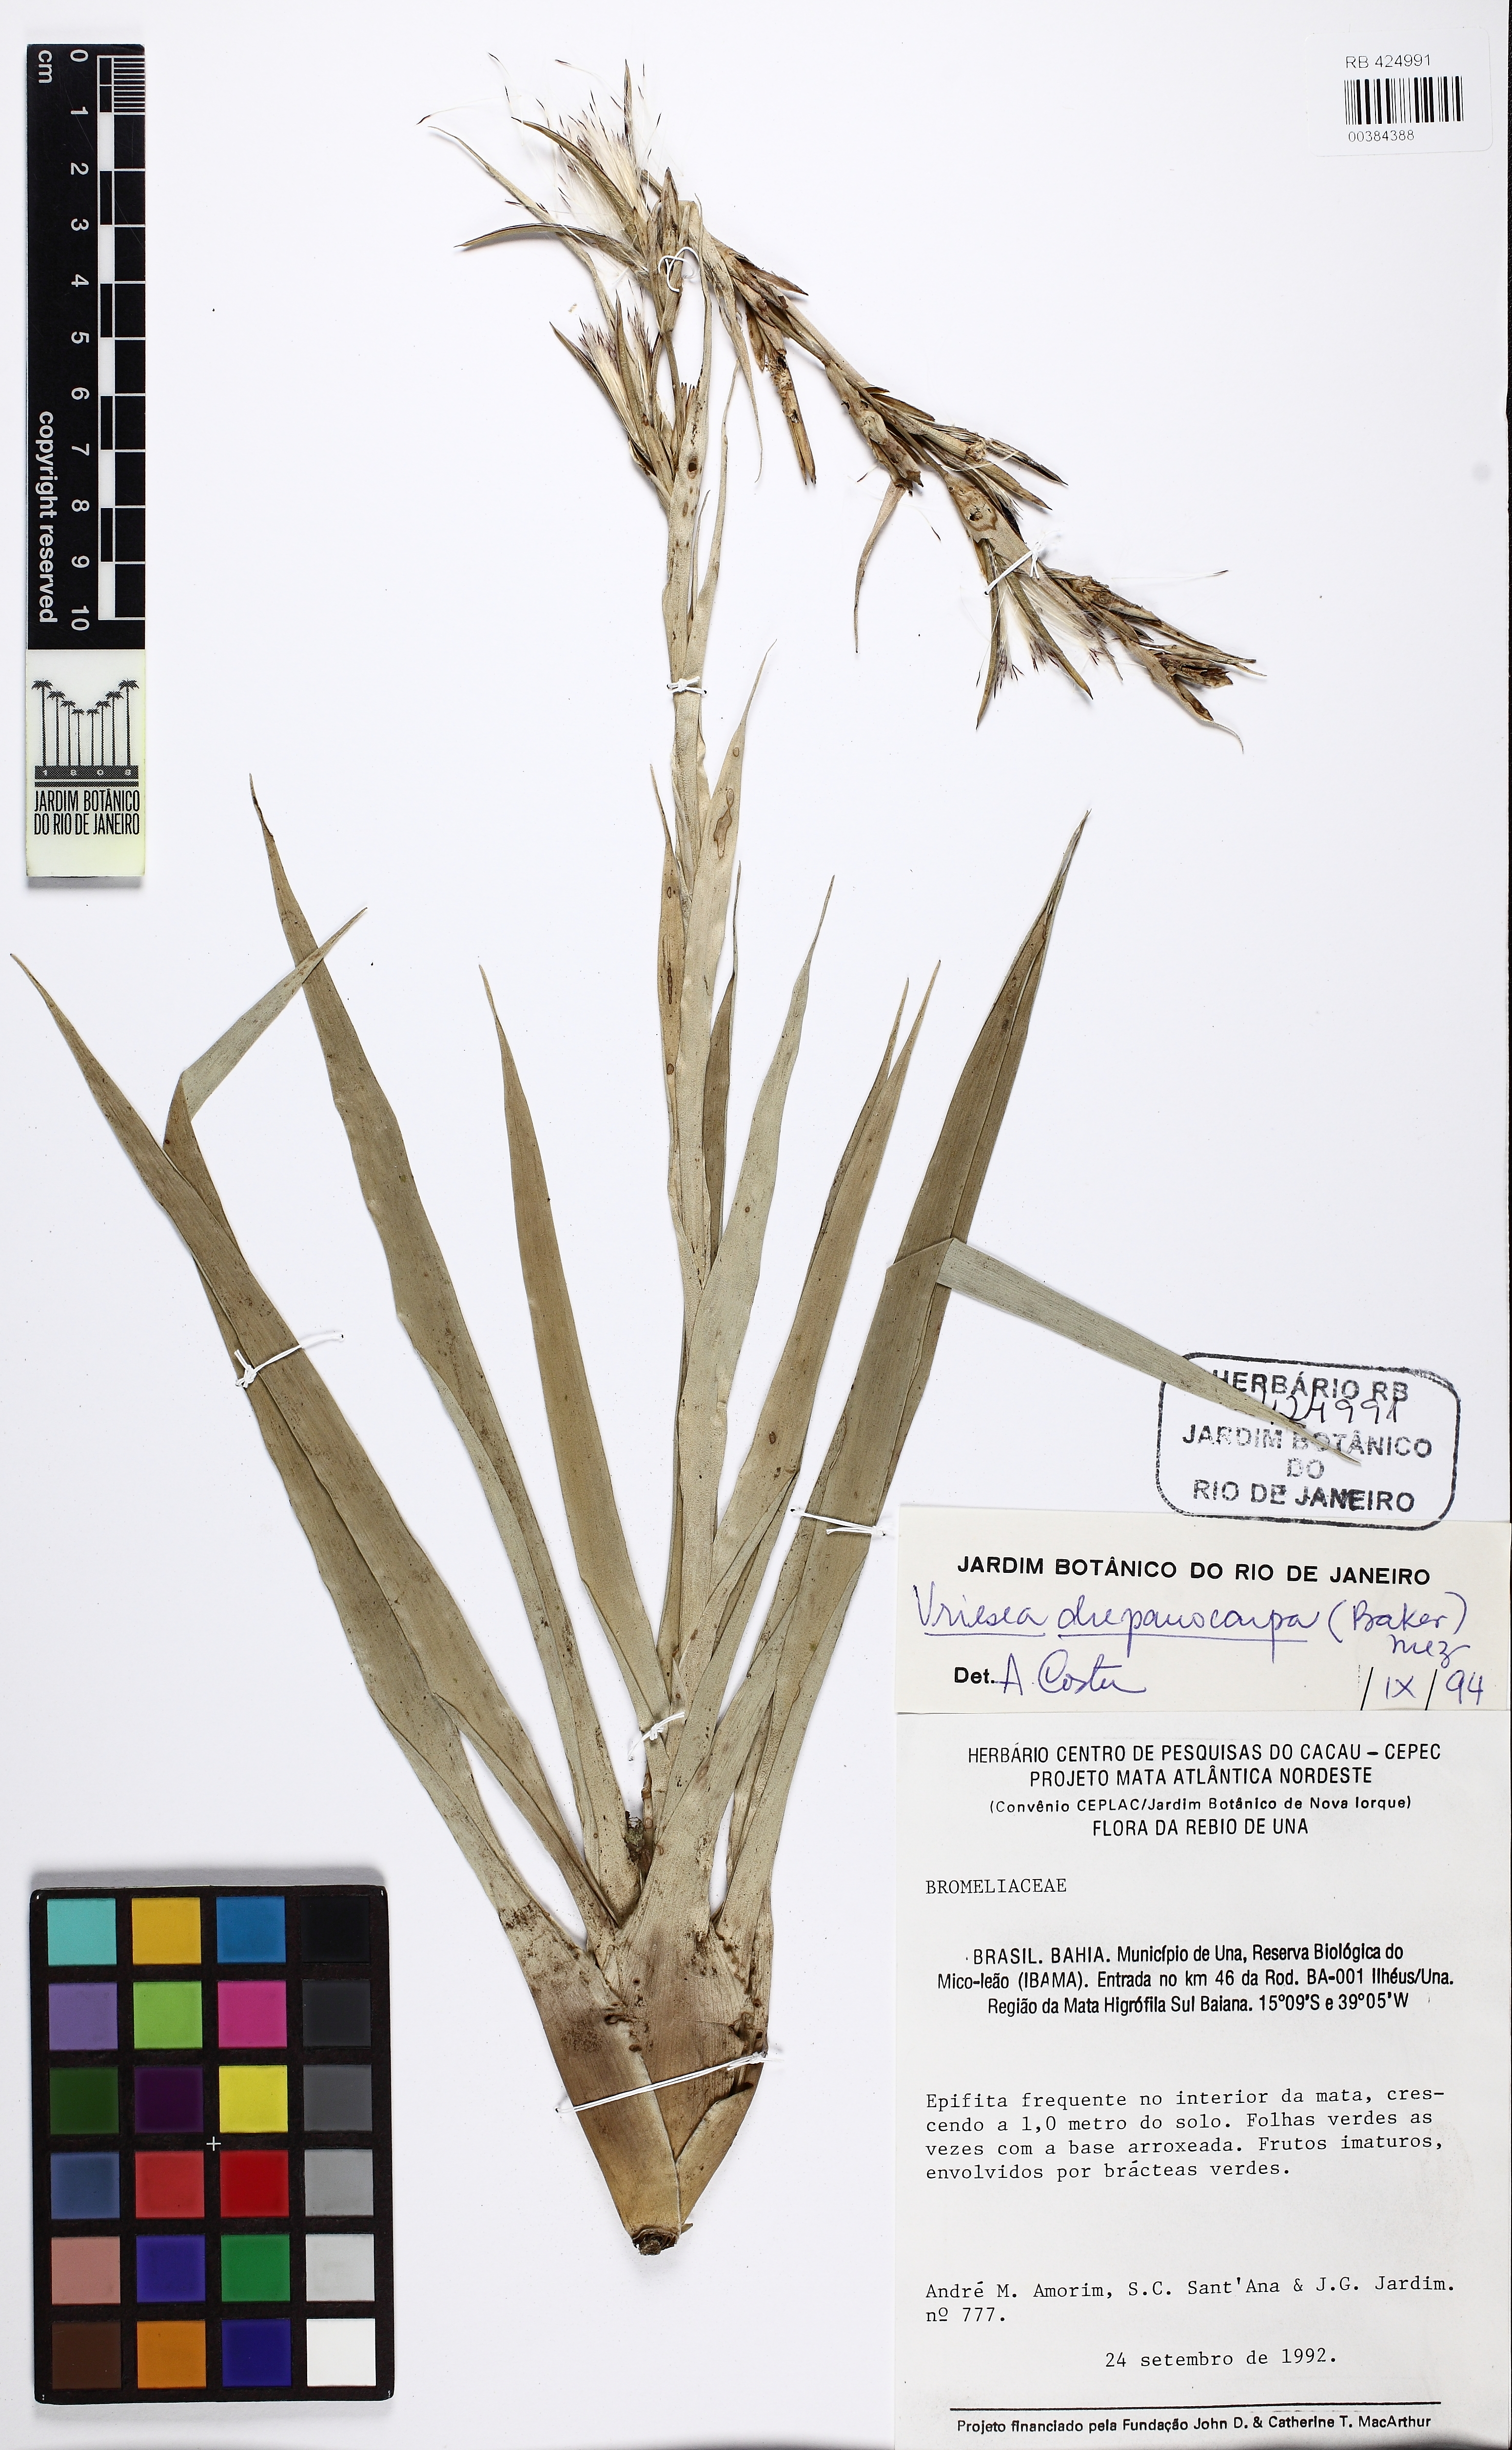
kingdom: Plantae
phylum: Tracheophyta
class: Liliopsida
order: Poales
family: Bromeliaceae
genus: Vriesea
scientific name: Vriesea drepanocarpa
